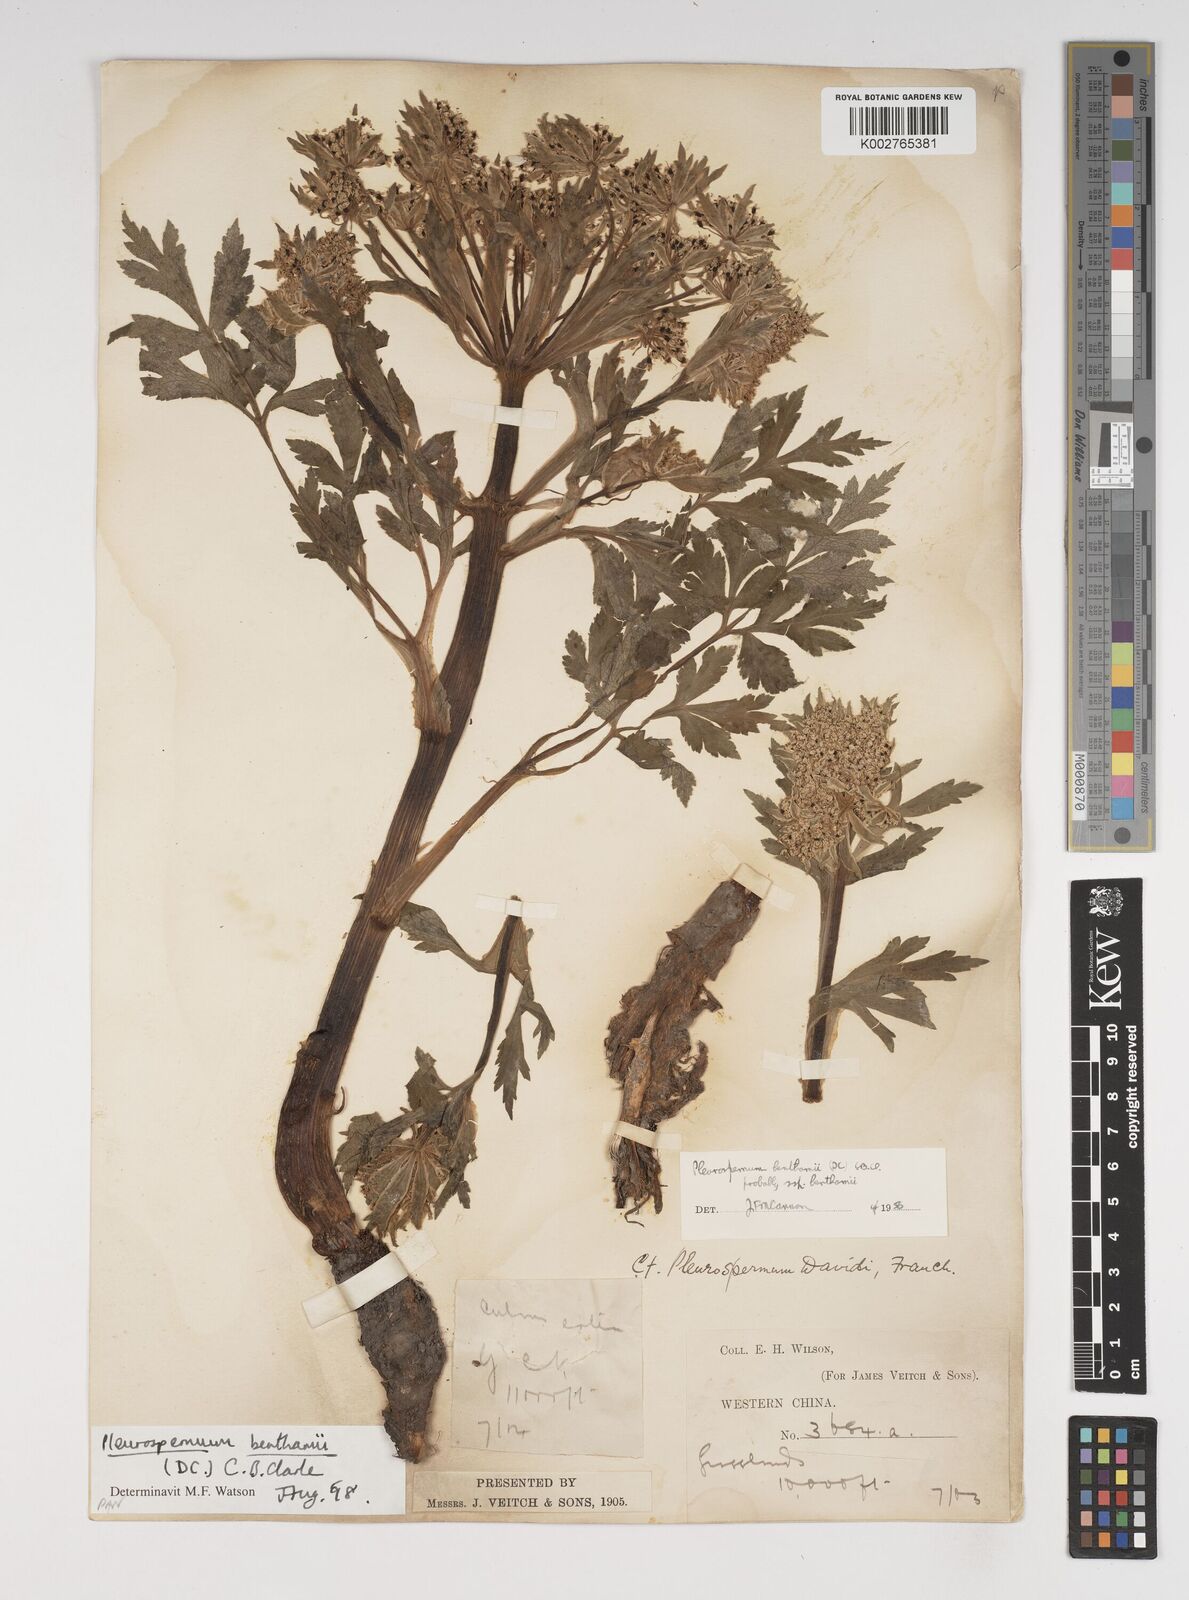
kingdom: Plantae
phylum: Tracheophyta
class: Magnoliopsida
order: Apiales
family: Apiaceae
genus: Hymenidium
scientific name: Hymenidium benthamii
